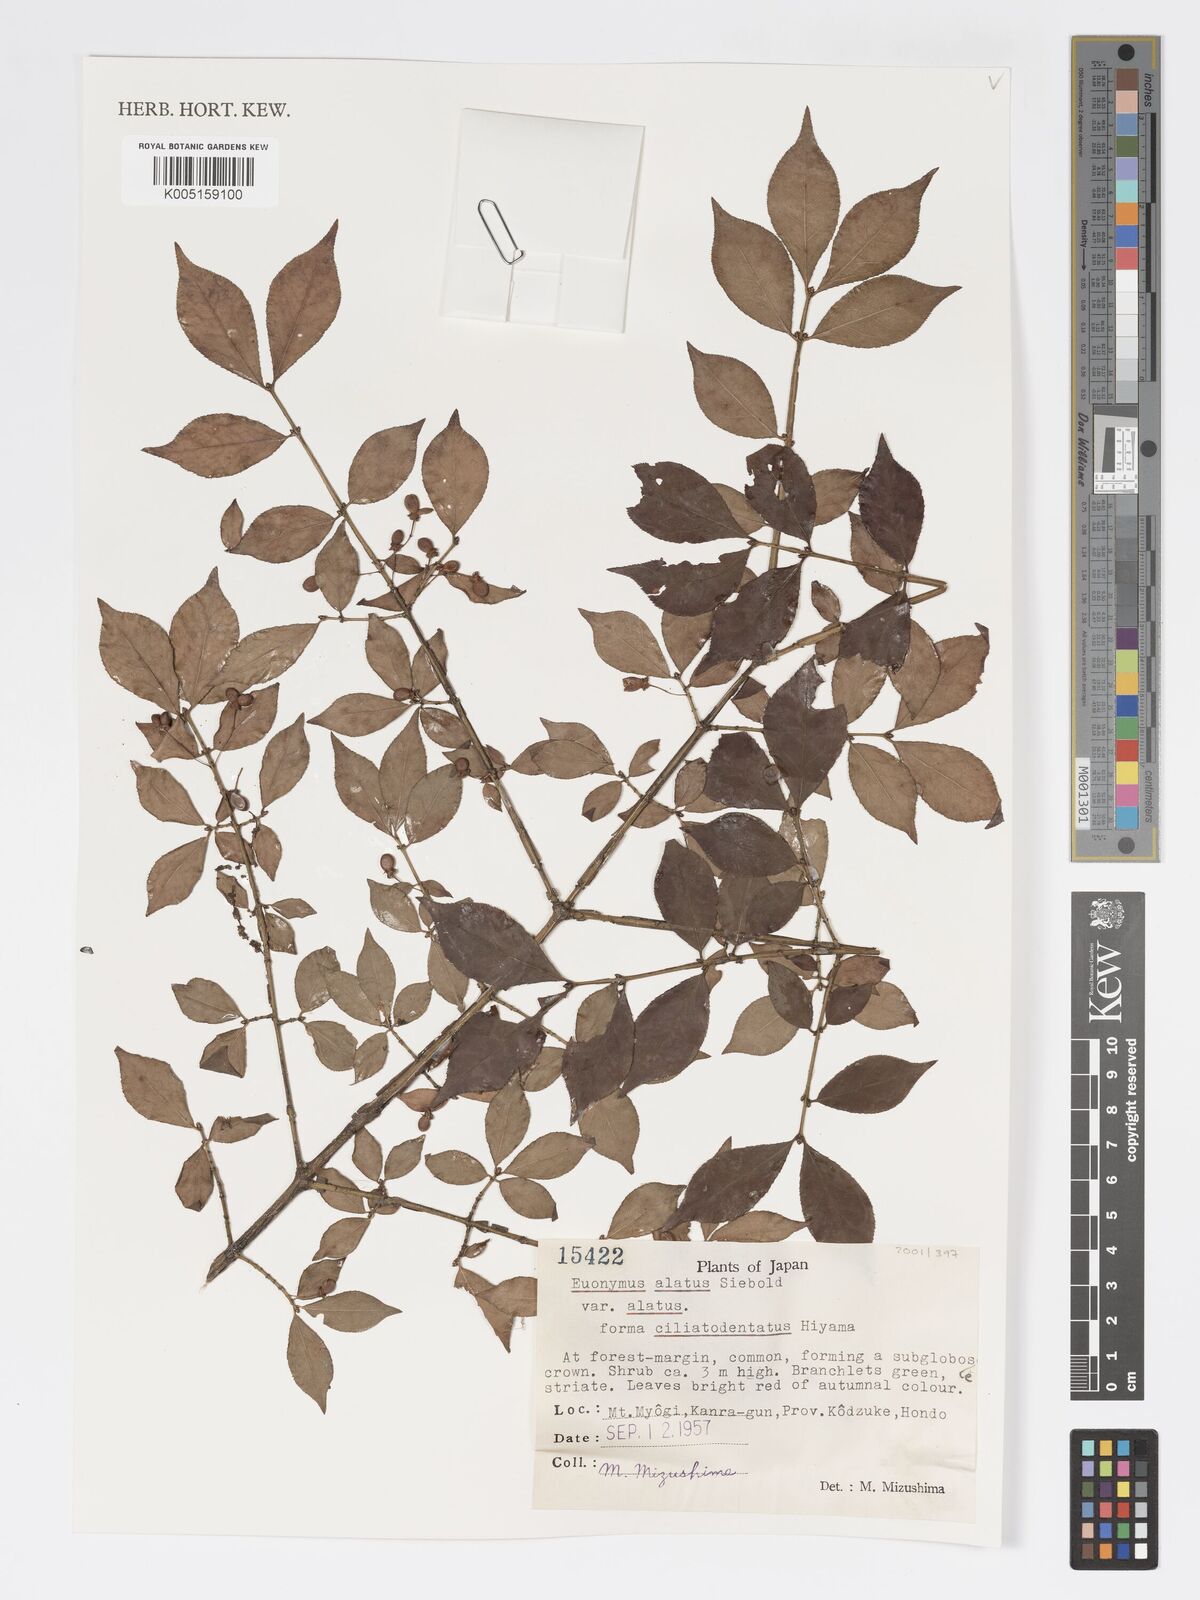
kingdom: Plantae
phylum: Tracheophyta
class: Magnoliopsida
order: Celastrales
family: Celastraceae
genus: Euonymus
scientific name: Euonymus
